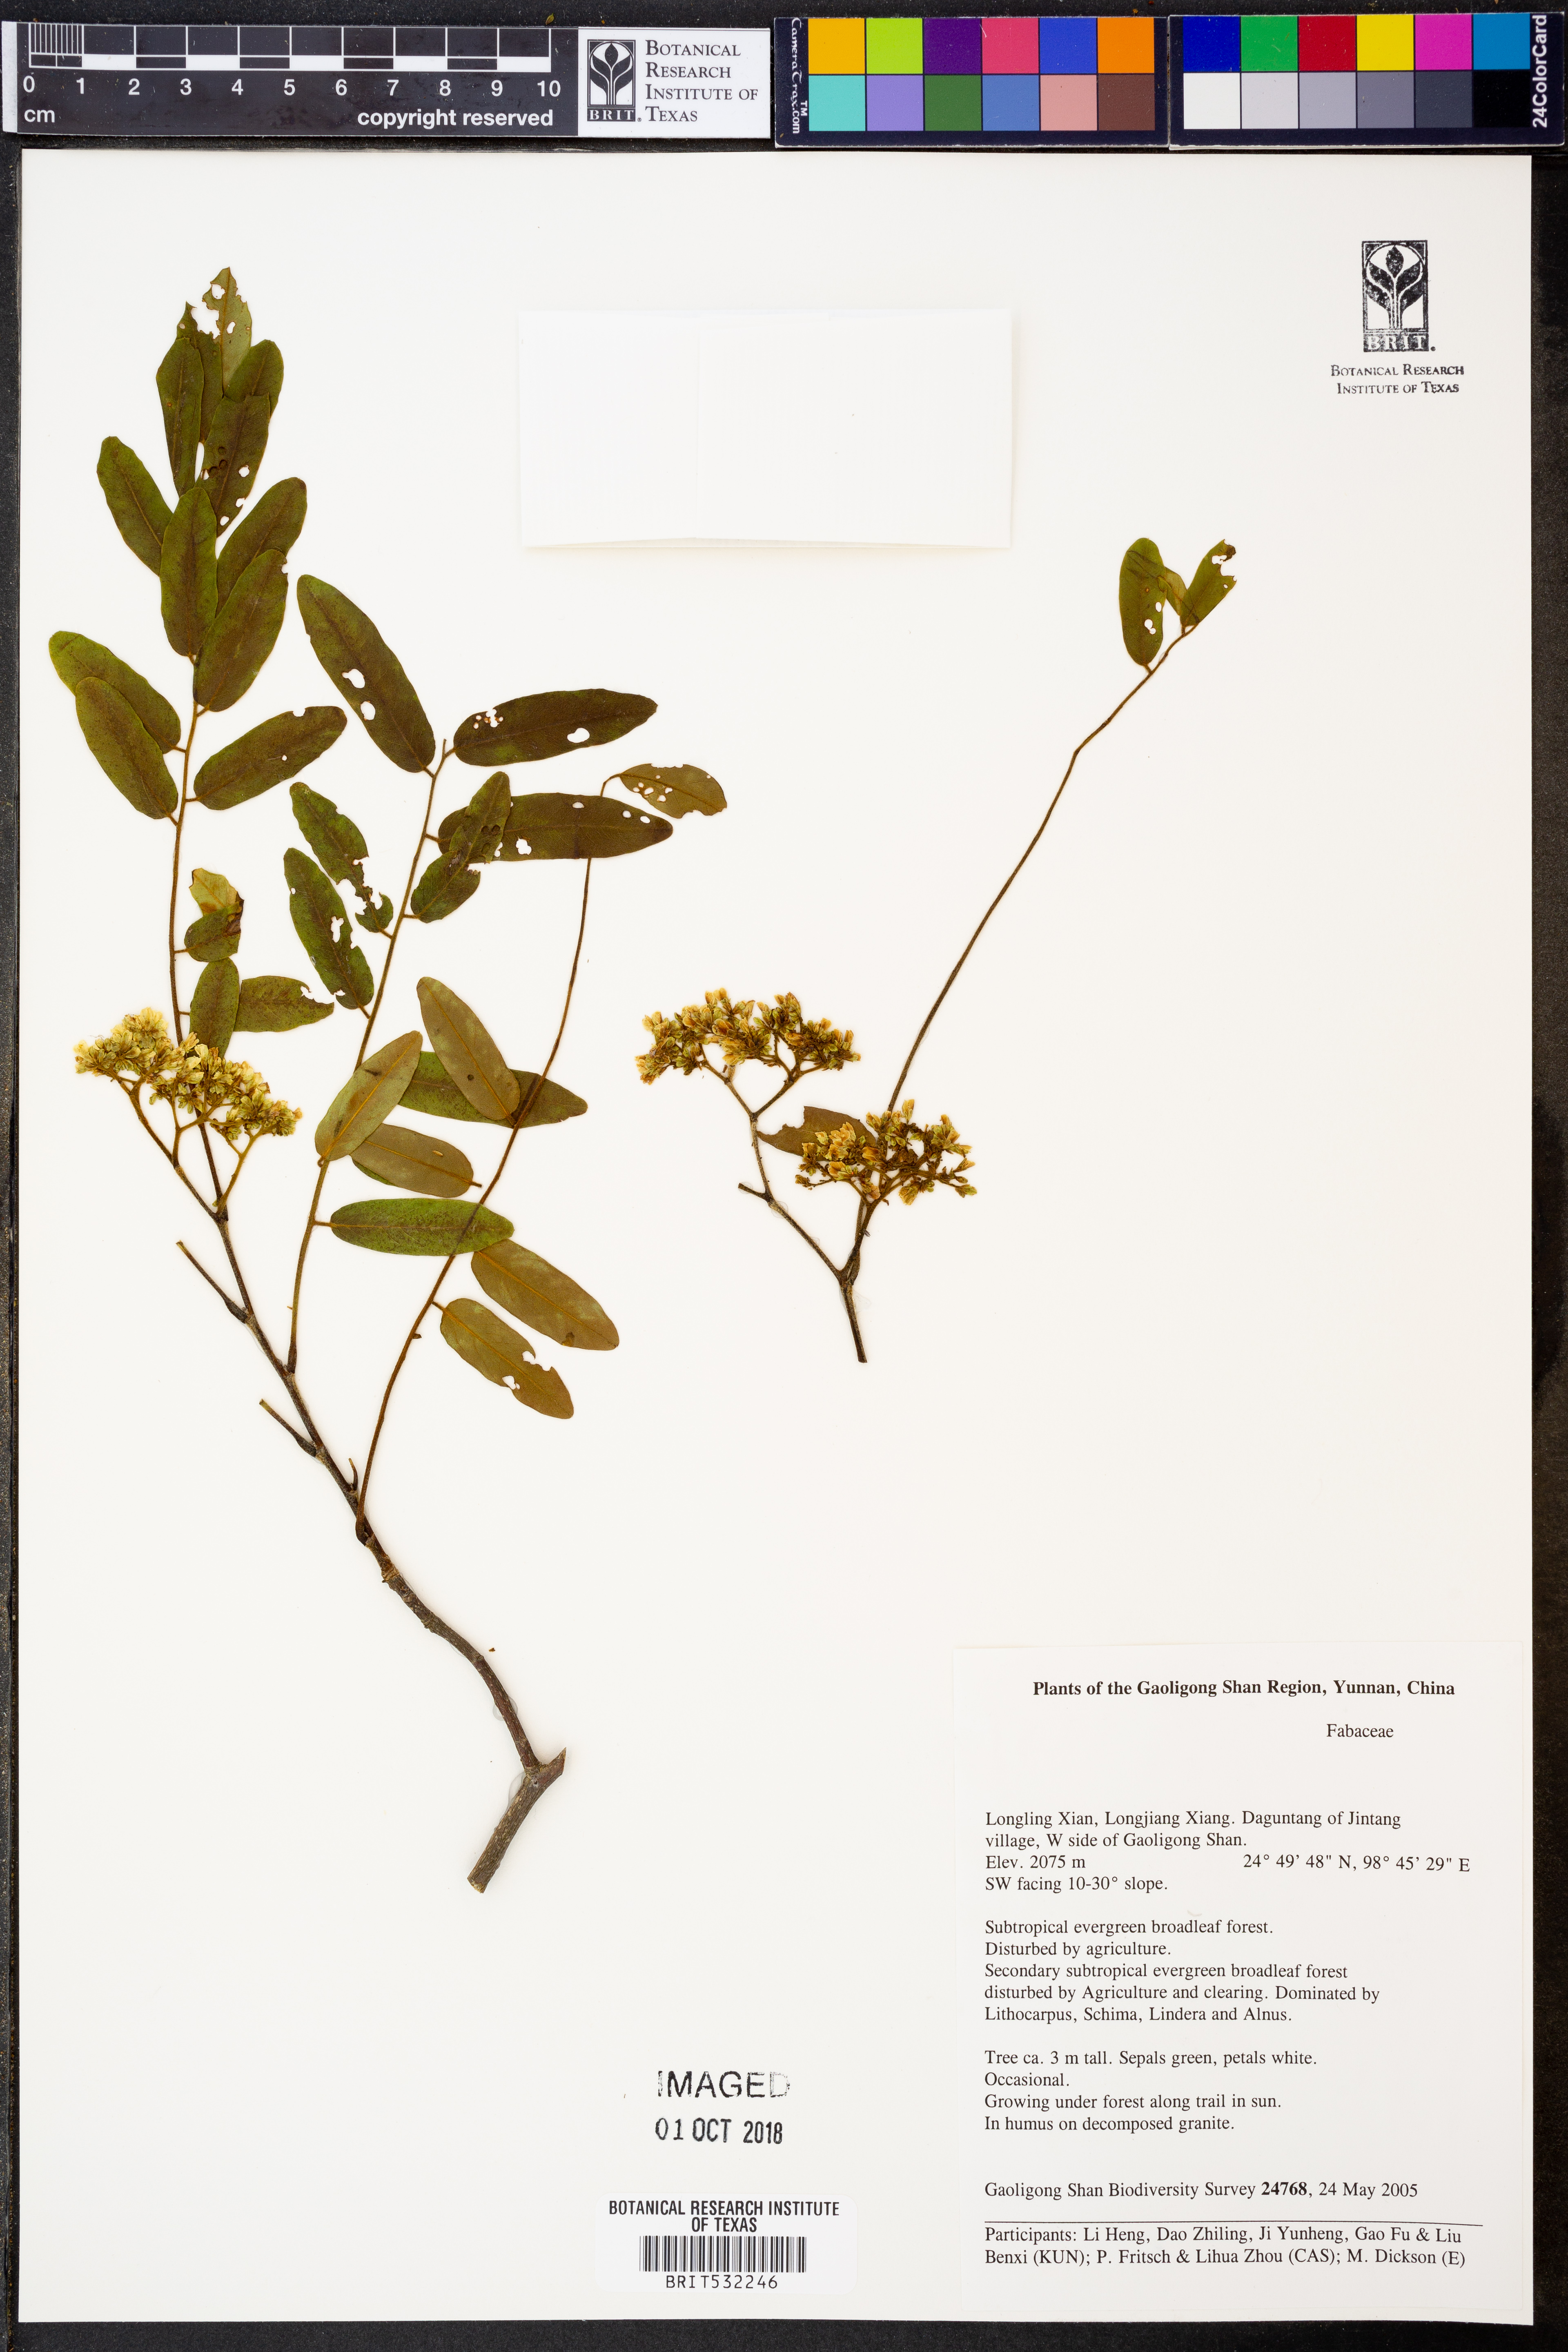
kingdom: Plantae
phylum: Tracheophyta
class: Magnoliopsida
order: Fabales
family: Fabaceae
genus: Dalbergia
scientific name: Dalbergia yunnanensis
